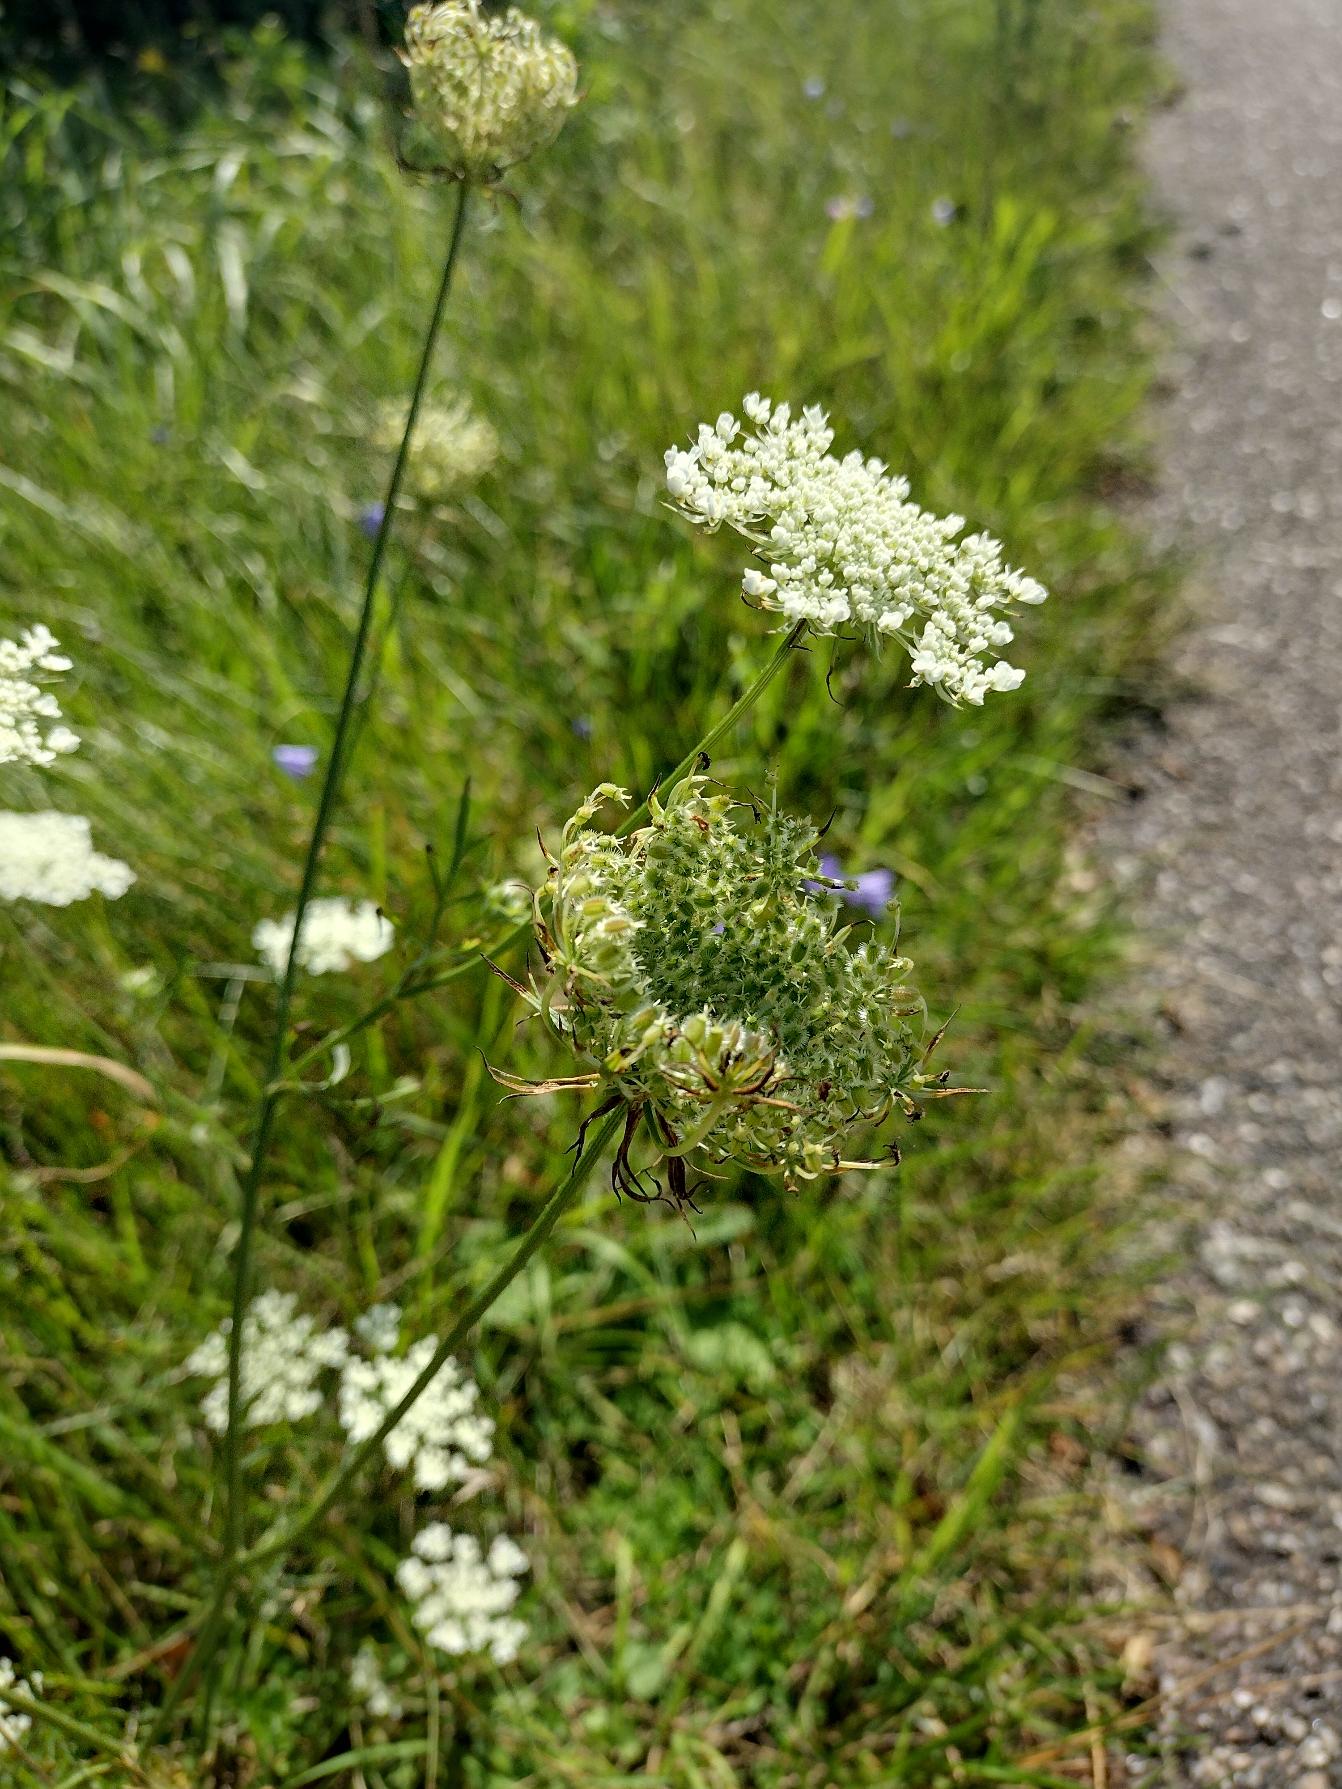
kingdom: Plantae
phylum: Tracheophyta
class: Magnoliopsida
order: Apiales
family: Apiaceae
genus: Daucus
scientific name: Daucus carota
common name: Gulerod
